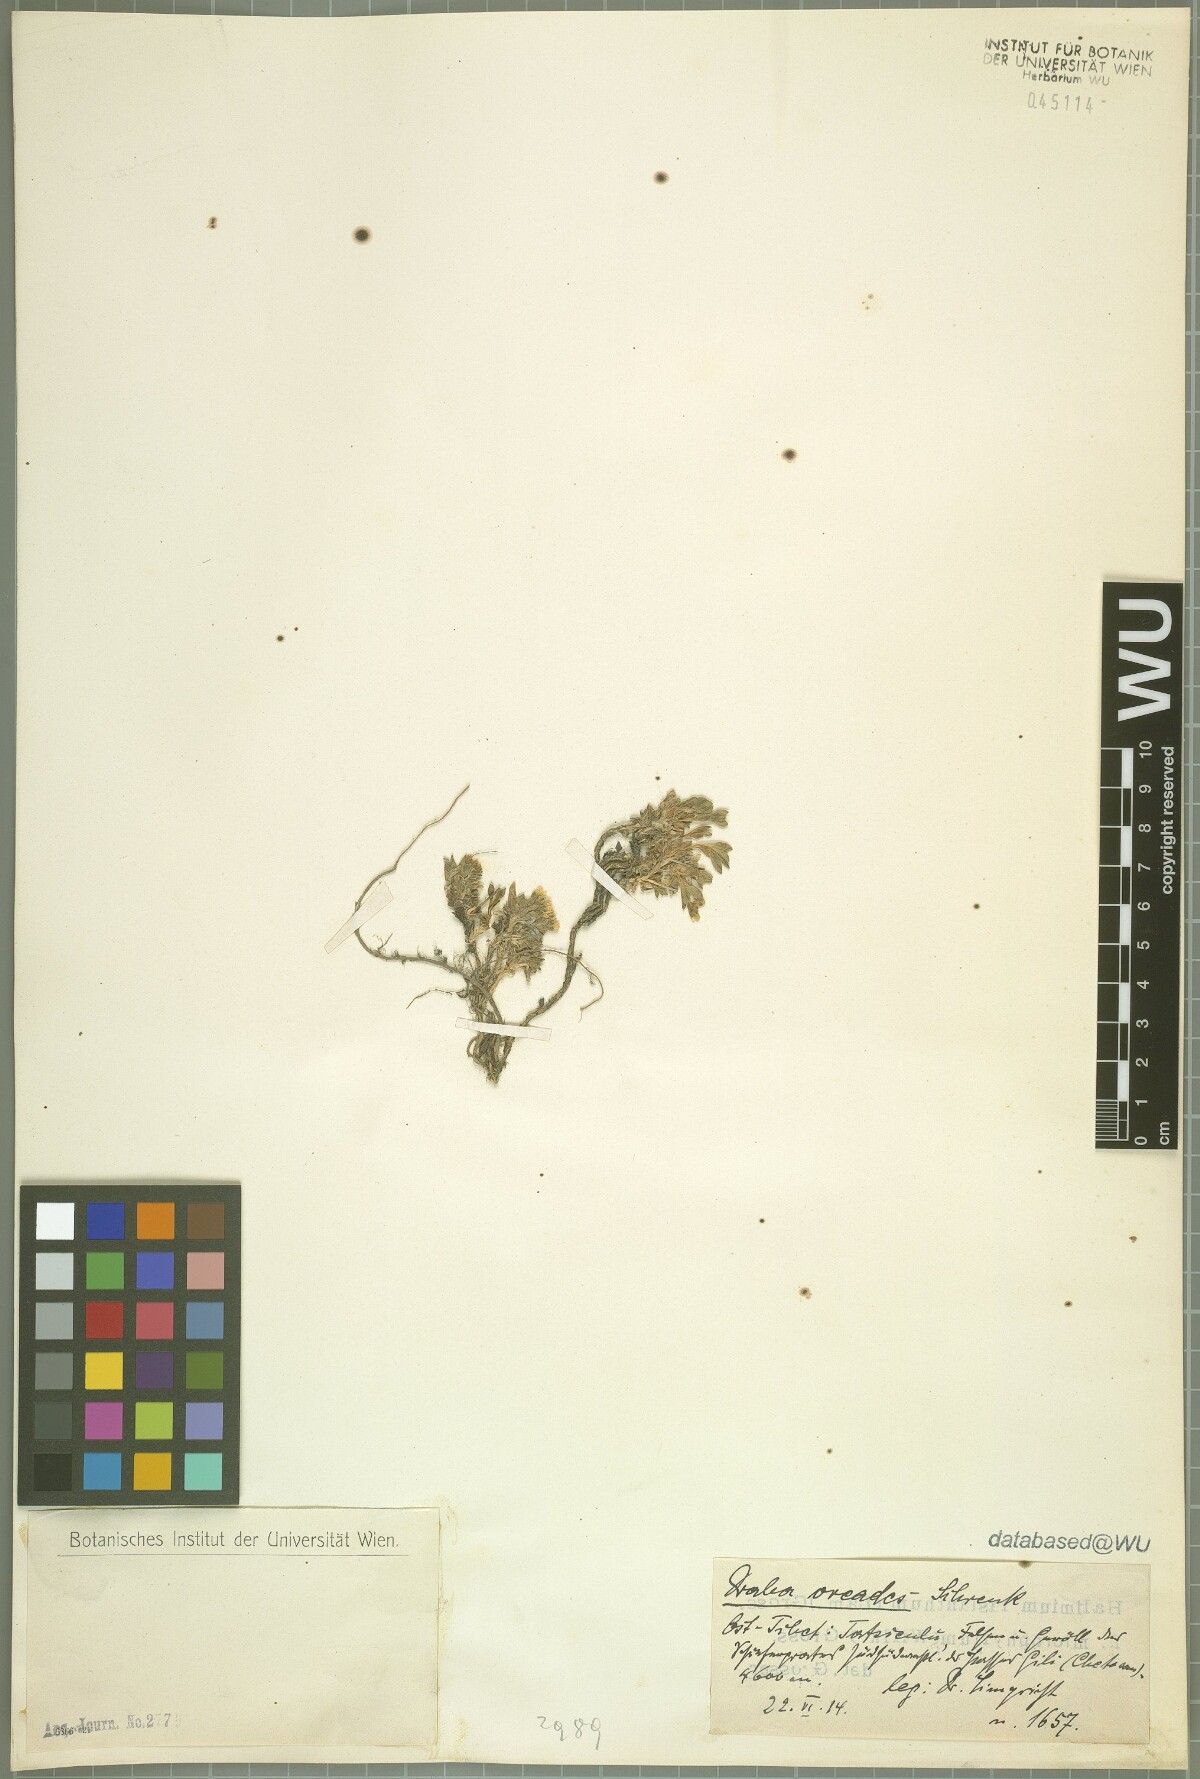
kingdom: Plantae
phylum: Tracheophyta
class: Magnoliopsida
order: Brassicales
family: Brassicaceae
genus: Draba
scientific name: Draba oreades
